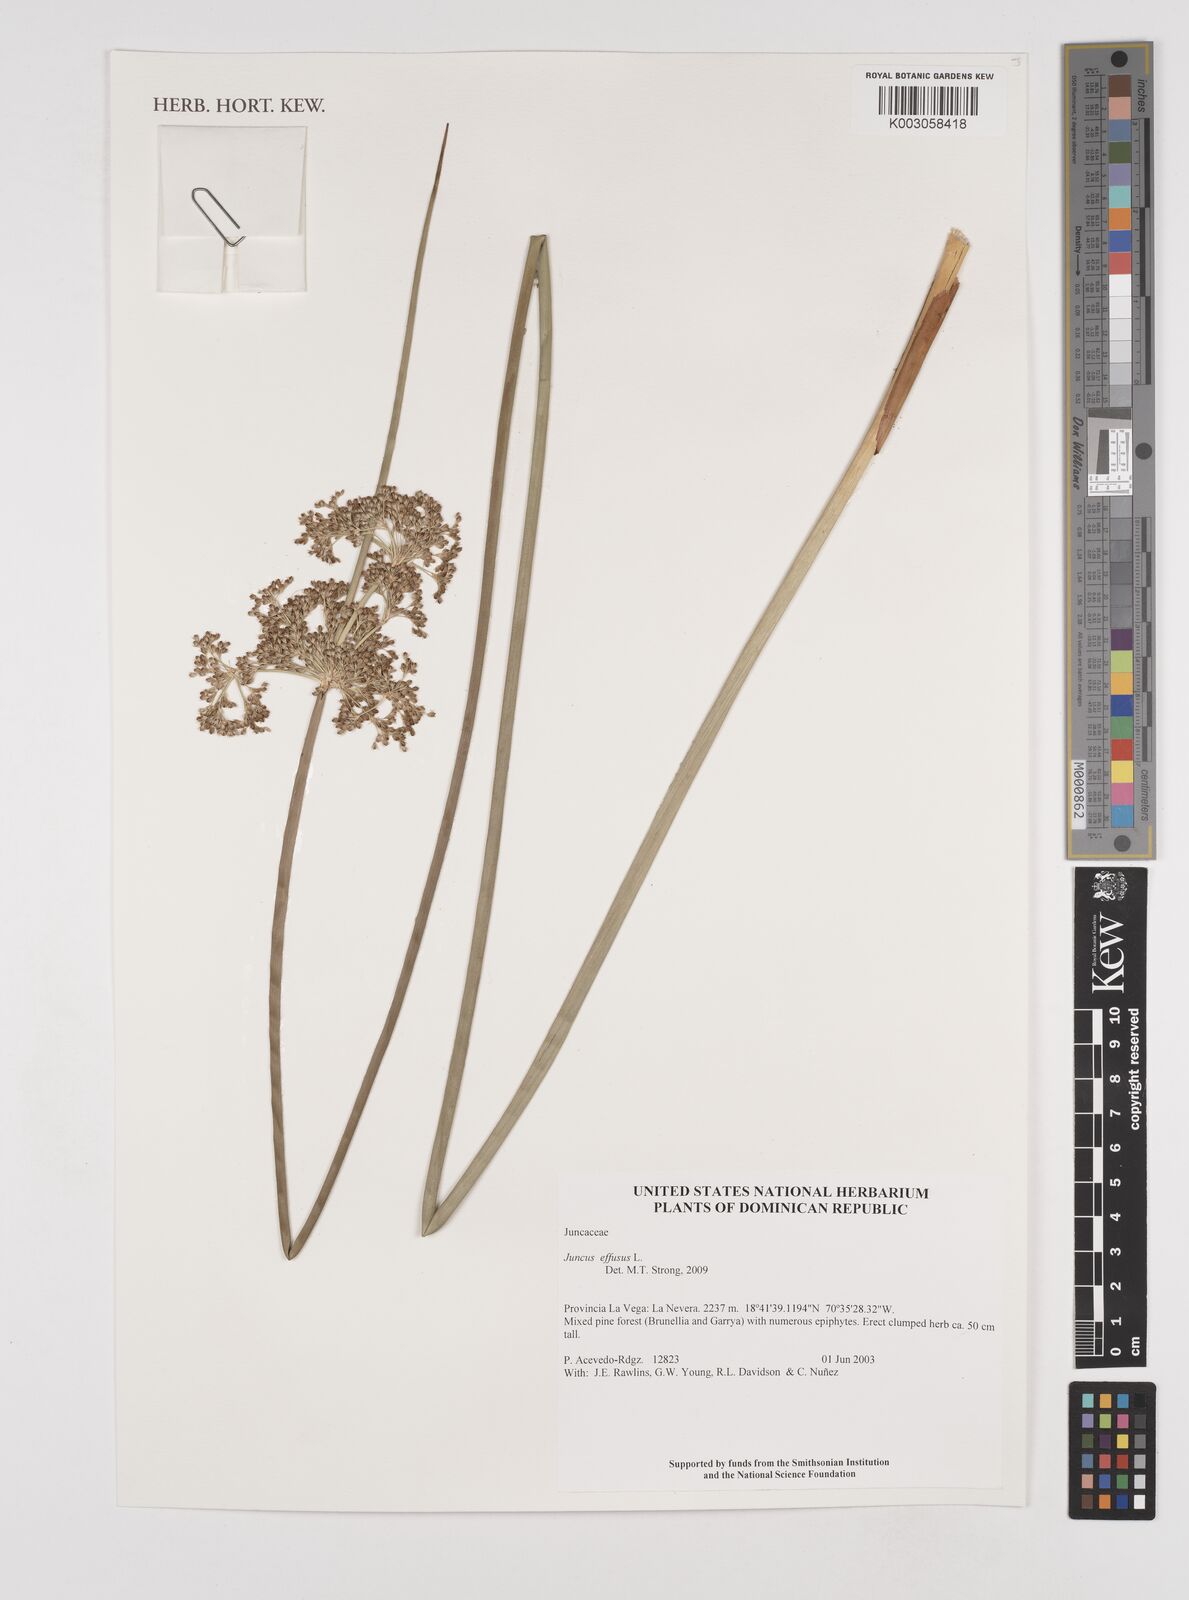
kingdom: Plantae
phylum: Tracheophyta
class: Liliopsida
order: Poales
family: Juncaceae
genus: Juncus
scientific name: Juncus effusus
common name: Soft rush
